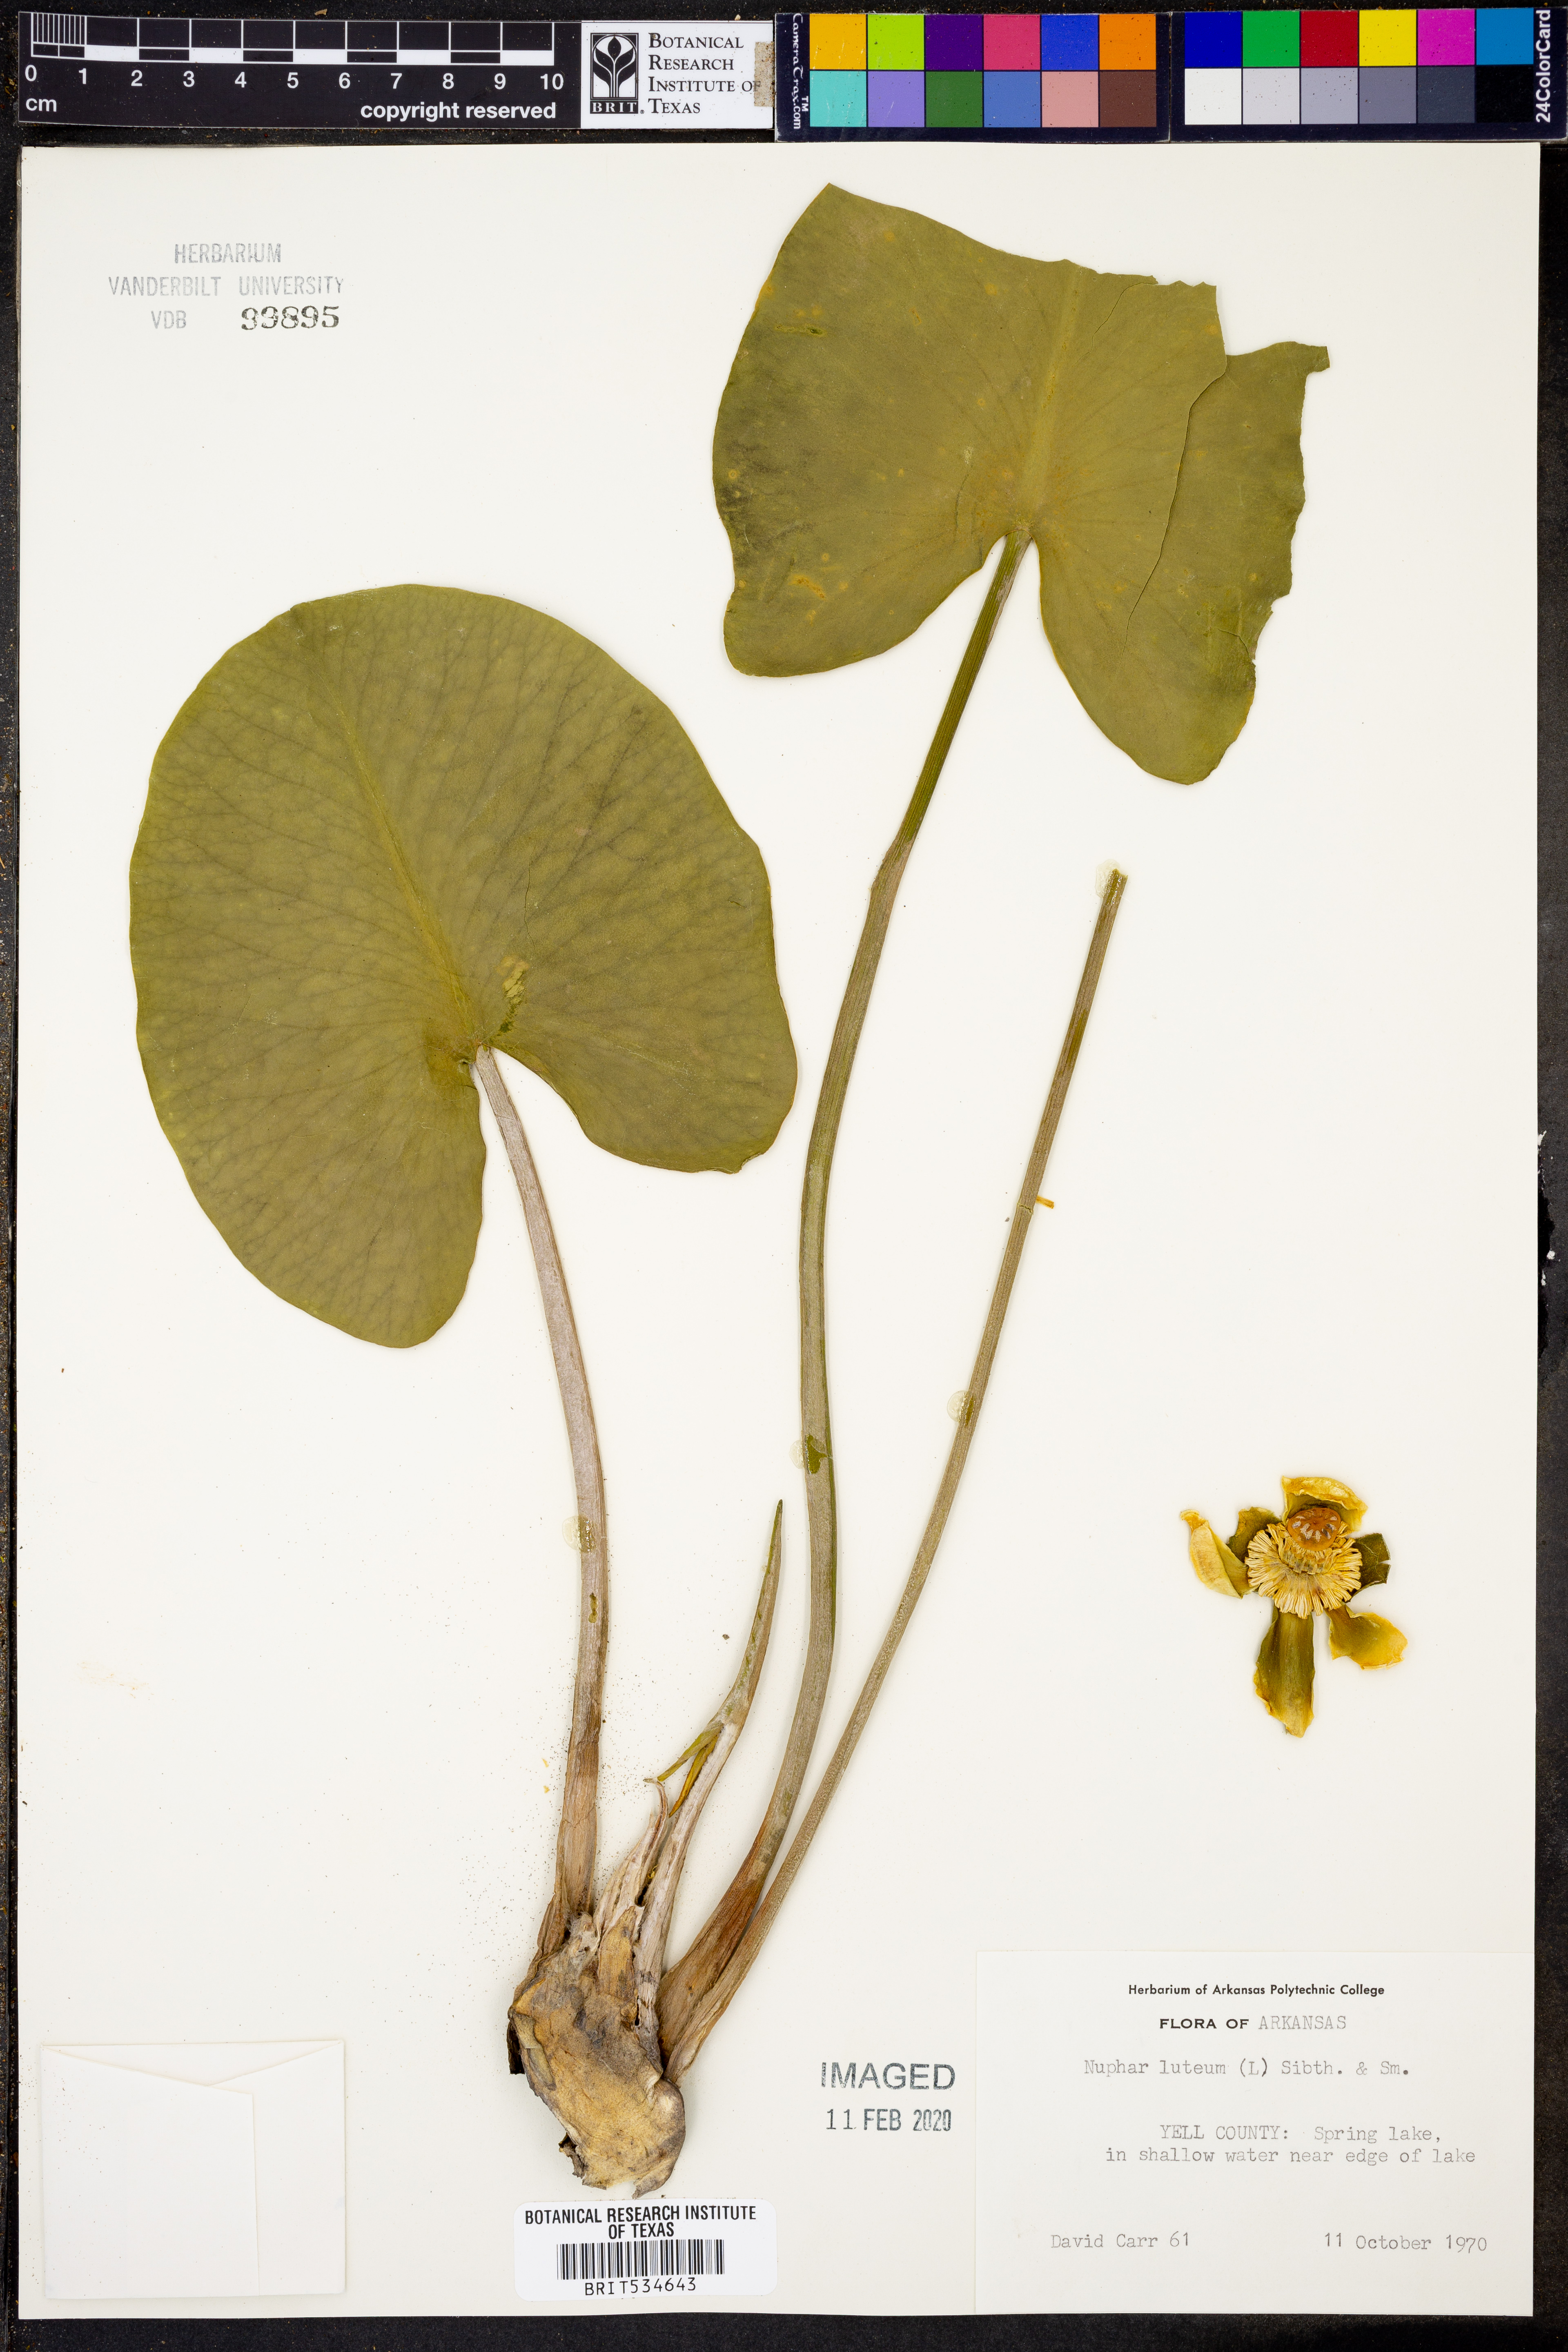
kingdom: Plantae
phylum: Tracheophyta
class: Magnoliopsida
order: Nymphaeales
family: Nymphaeaceae
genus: Nuphar
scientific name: Nuphar lutea
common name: Yellow water-lily
